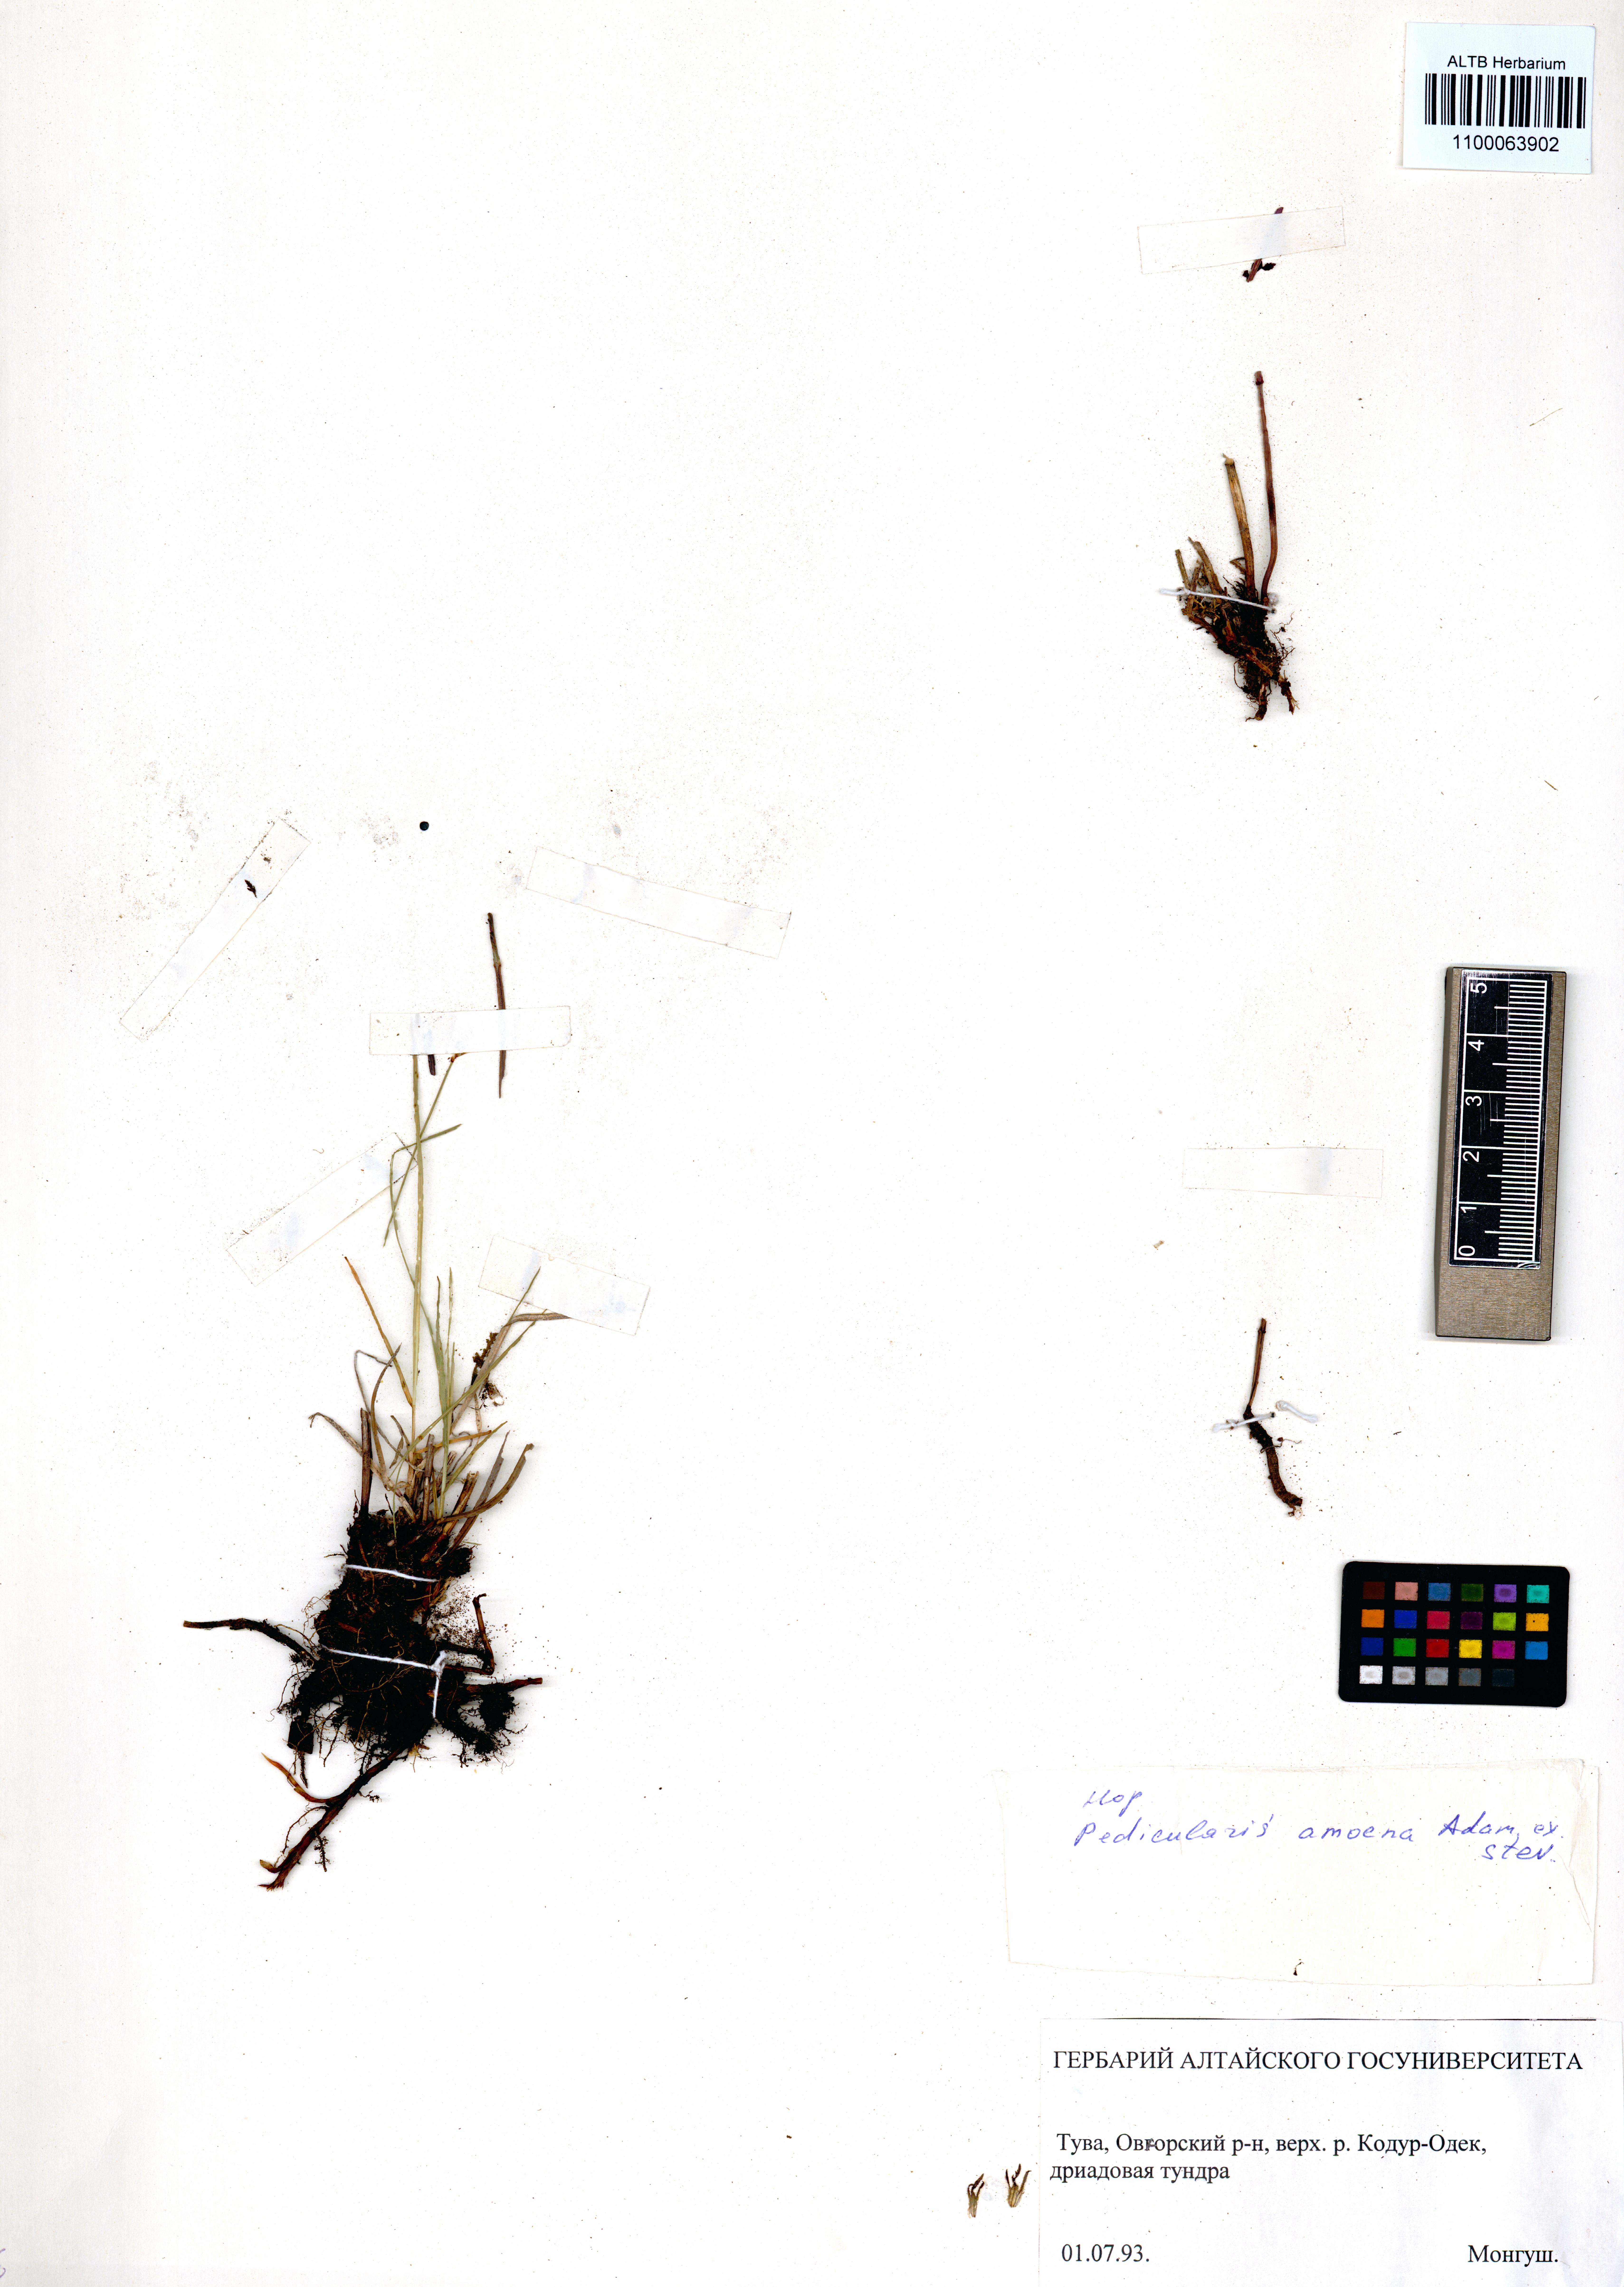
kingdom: Plantae
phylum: Tracheophyta
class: Magnoliopsida
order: Lamiales
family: Orobanchaceae
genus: Pedicularis
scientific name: Pedicularis amoena
